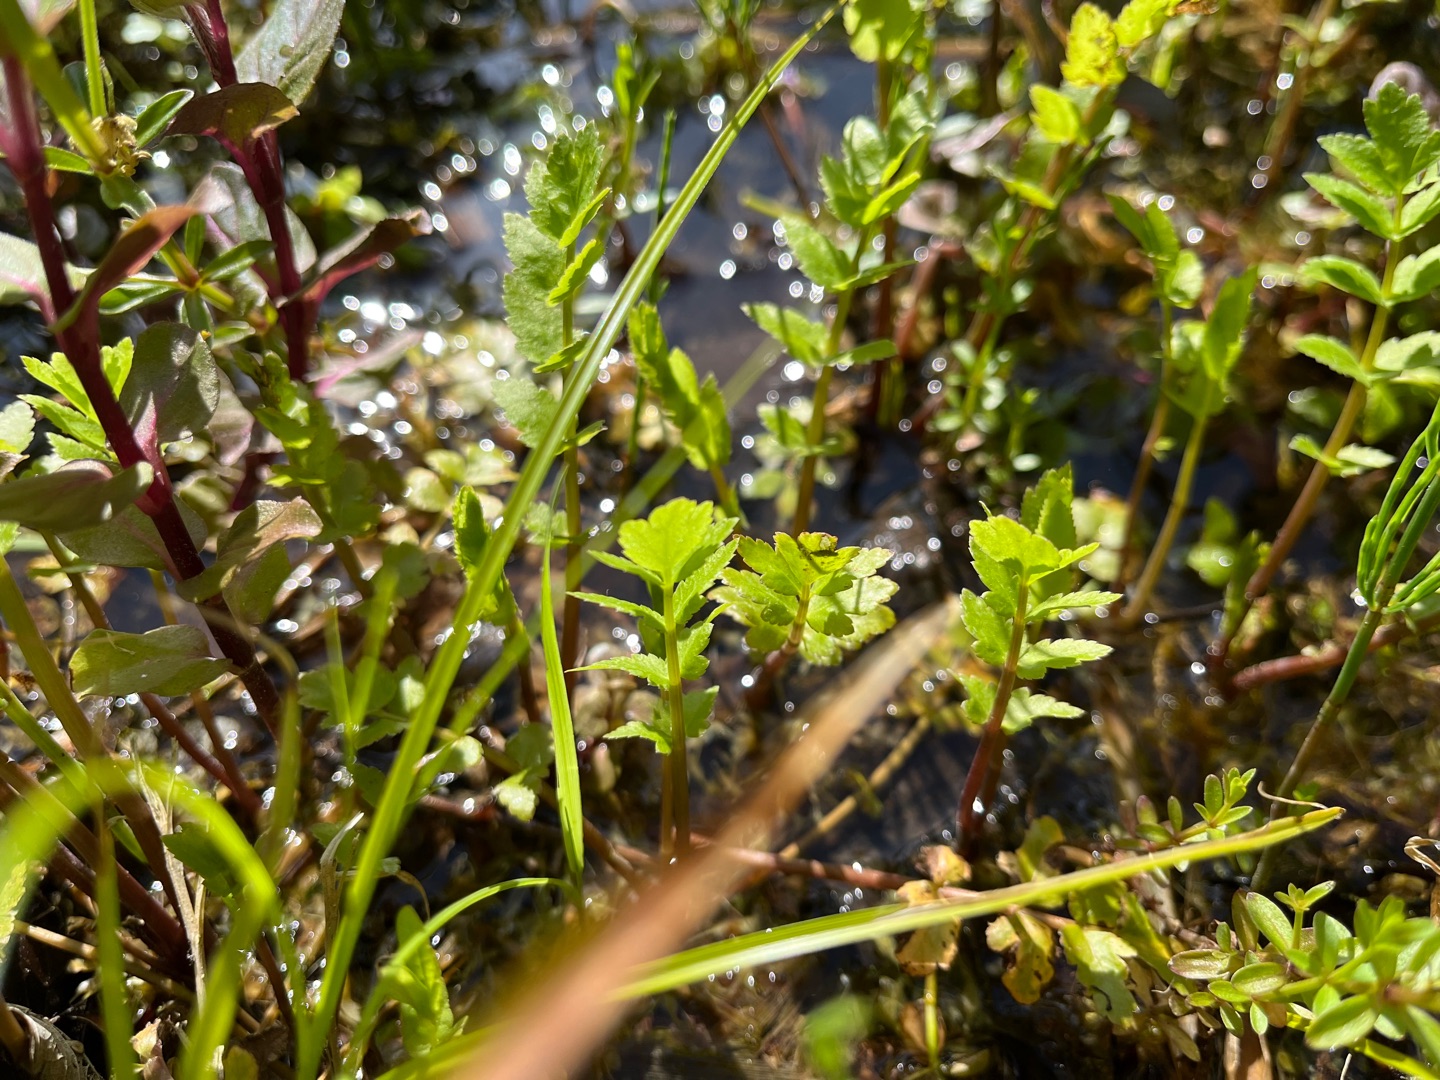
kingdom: Plantae
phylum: Tracheophyta
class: Magnoliopsida
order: Apiales
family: Apiaceae
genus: Berula
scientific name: Berula erecta
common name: Sideskærm
